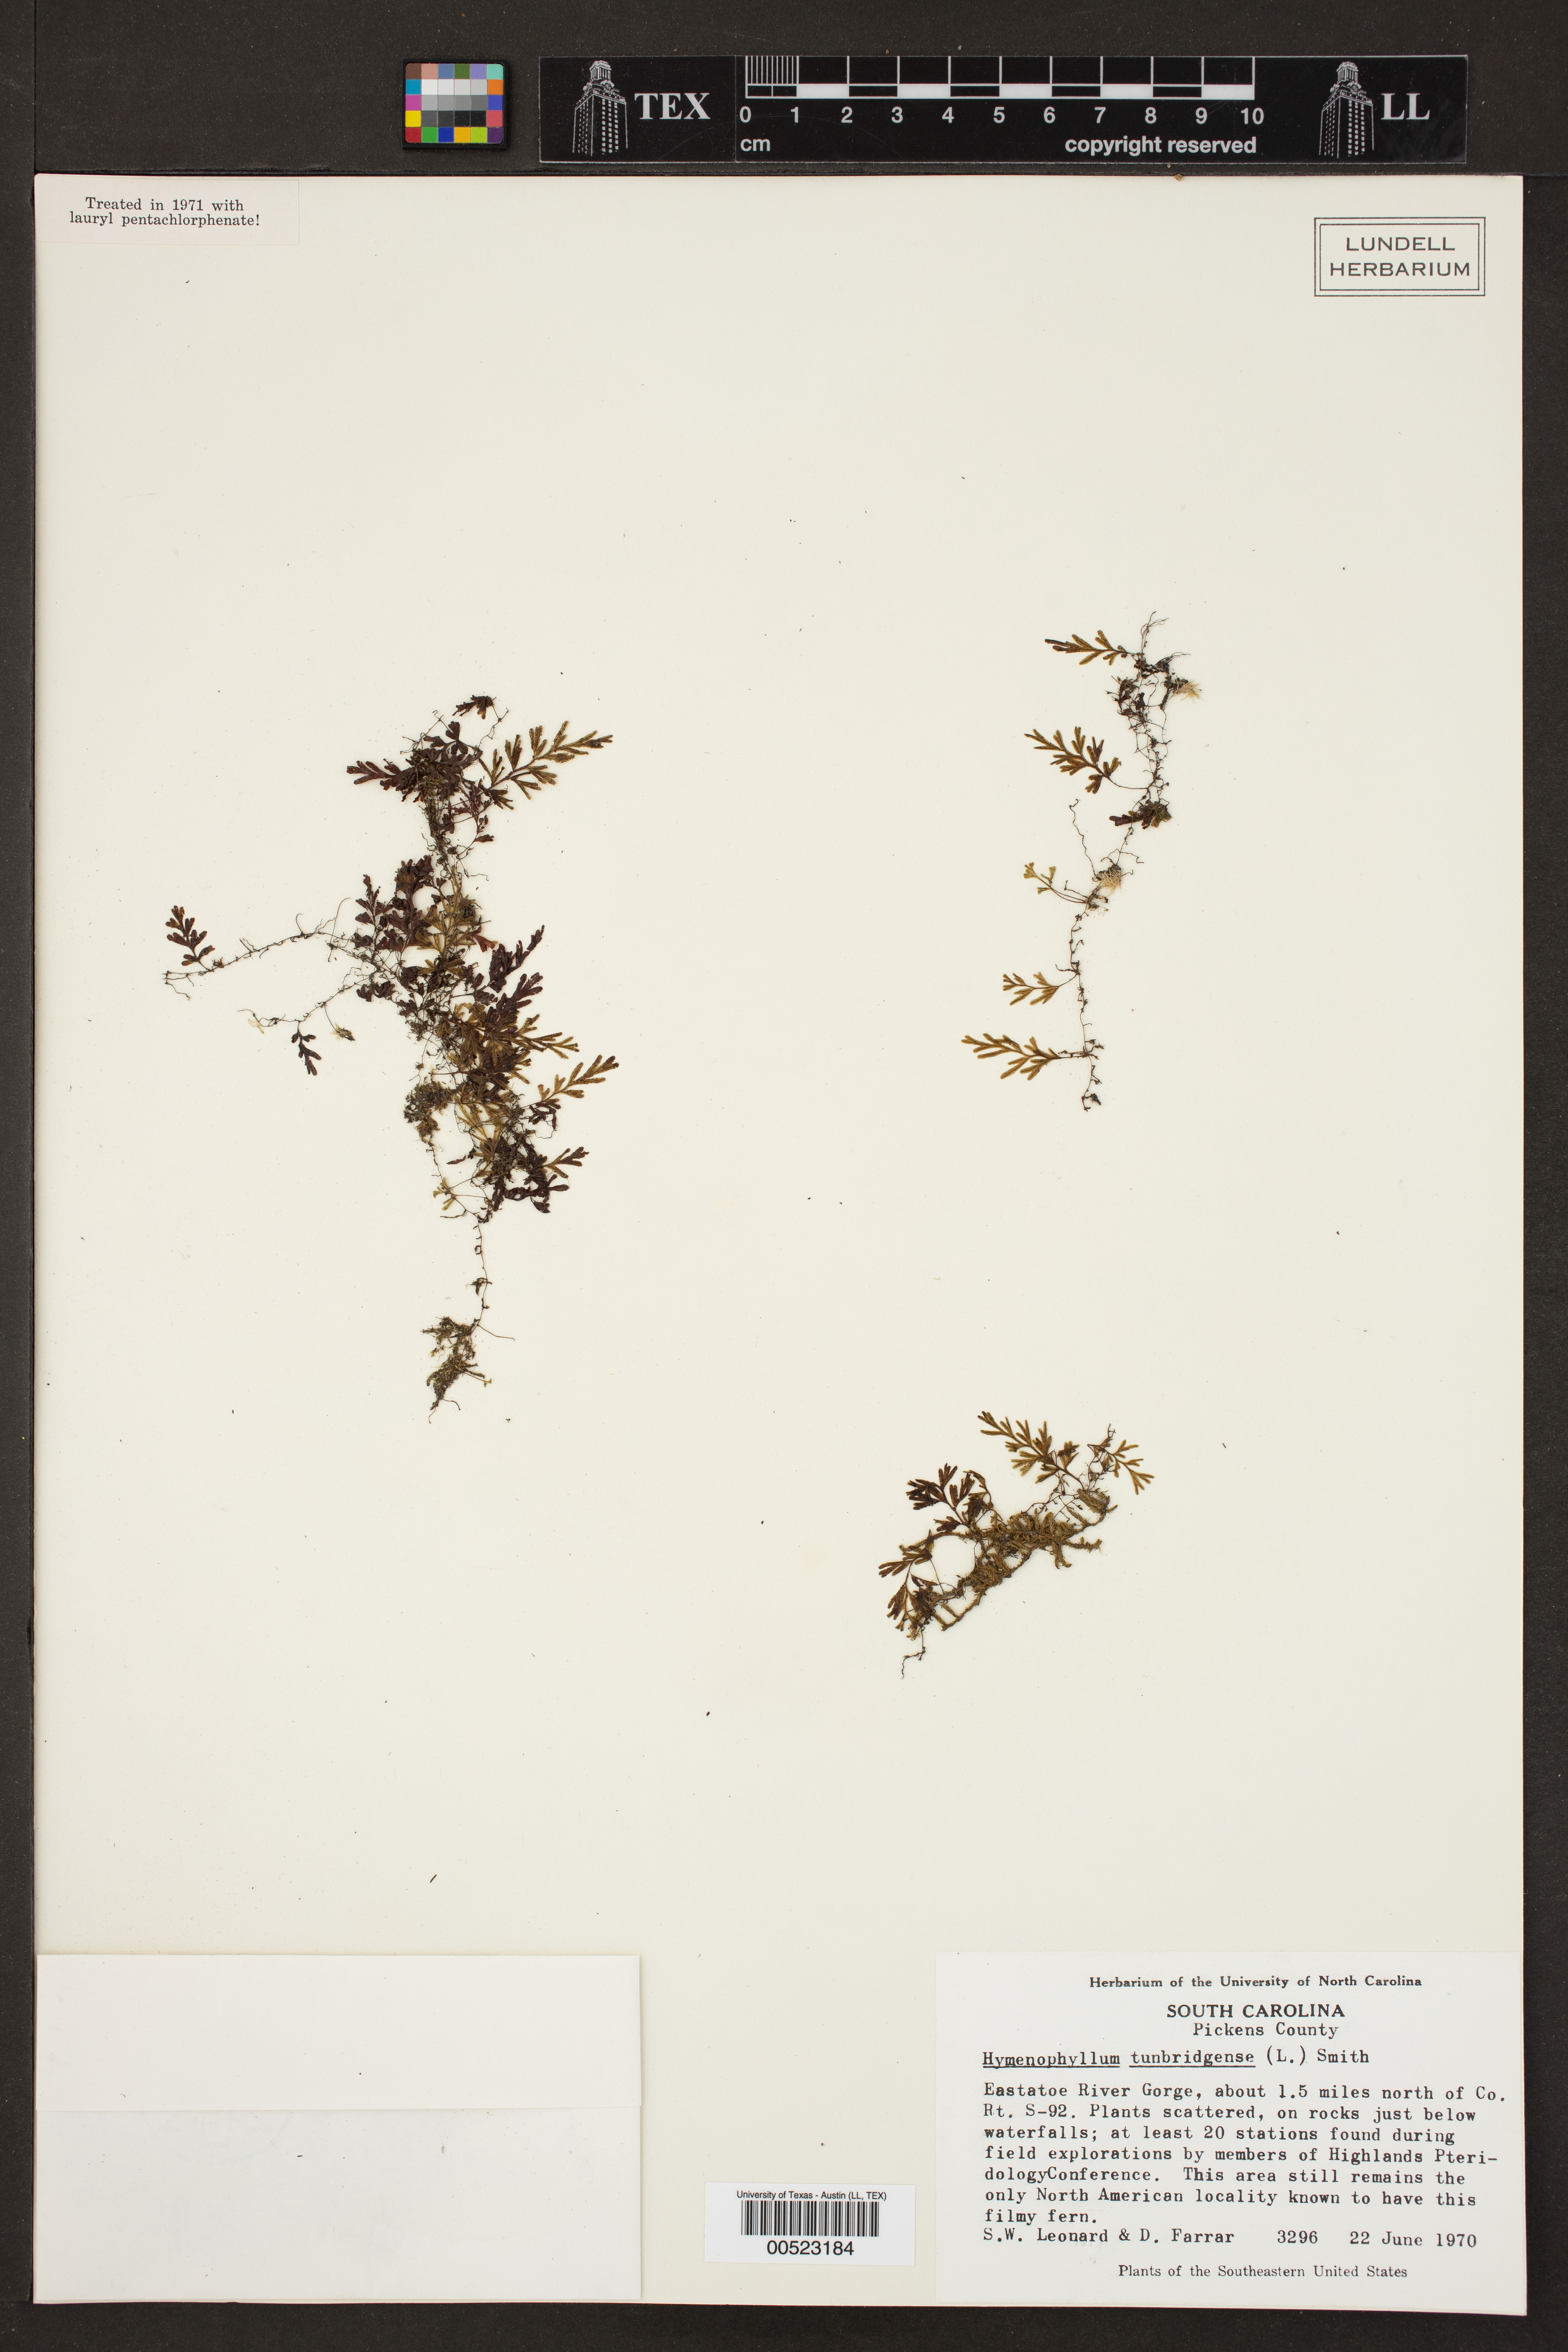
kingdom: Plantae
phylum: Tracheophyta
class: Polypodiopsida
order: Hymenophyllales
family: Hymenophyllaceae
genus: Hymenophyllum
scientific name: Hymenophyllum tunbrigense
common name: Tunbridge filmy fern
